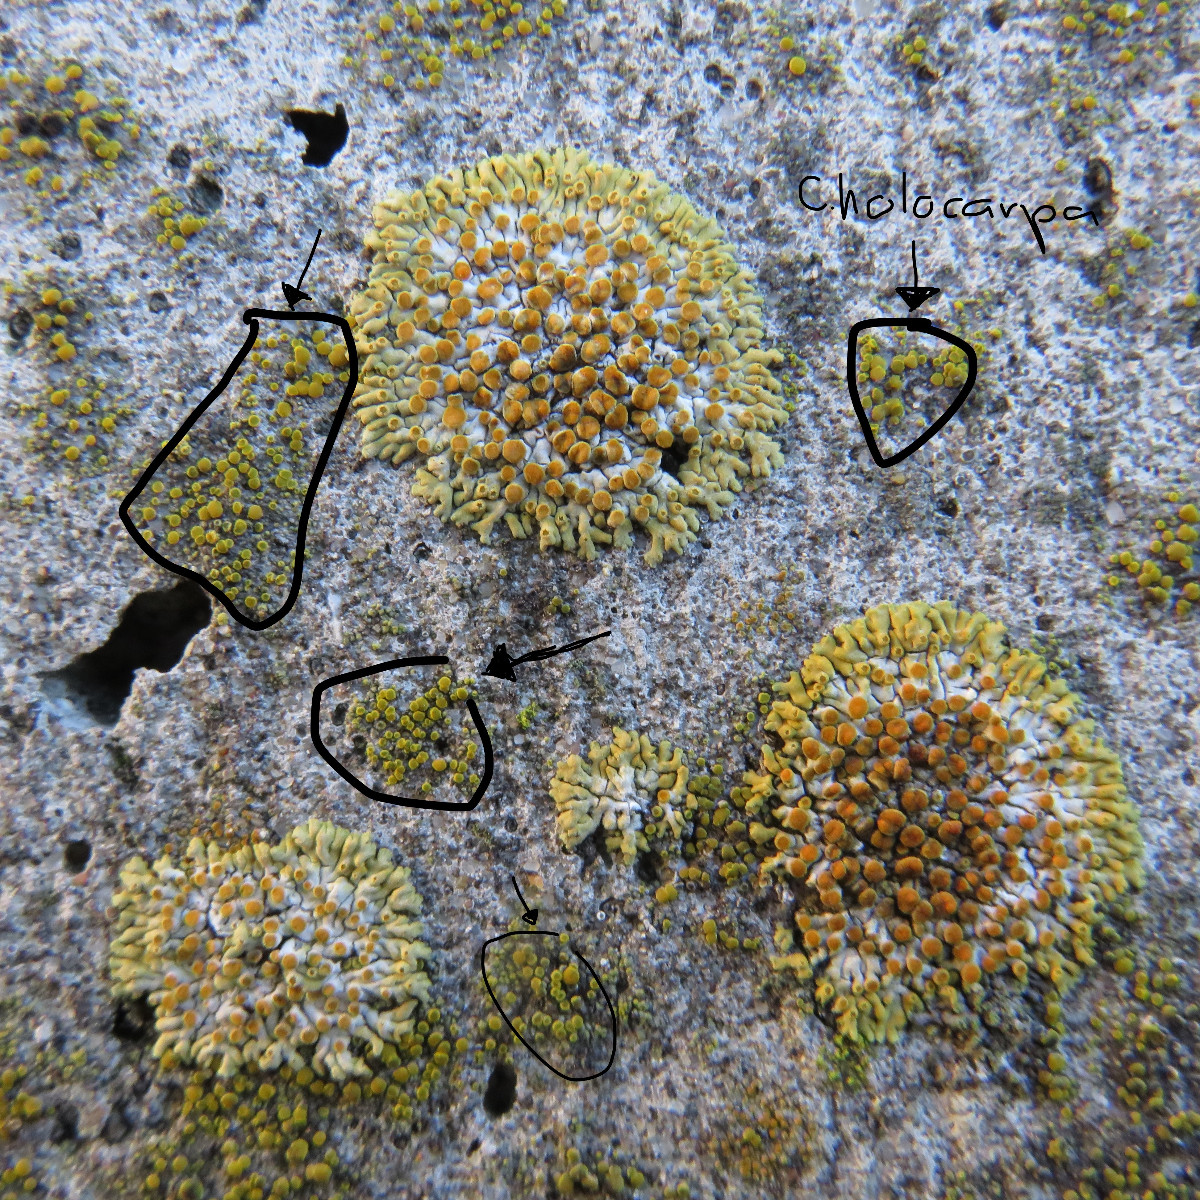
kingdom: Fungi
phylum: Ascomycota
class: Candelariomycetes
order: Candelariales
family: Candelariaceae
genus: Candelariella
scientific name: Candelariella aurella
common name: liden æggeblommelav
